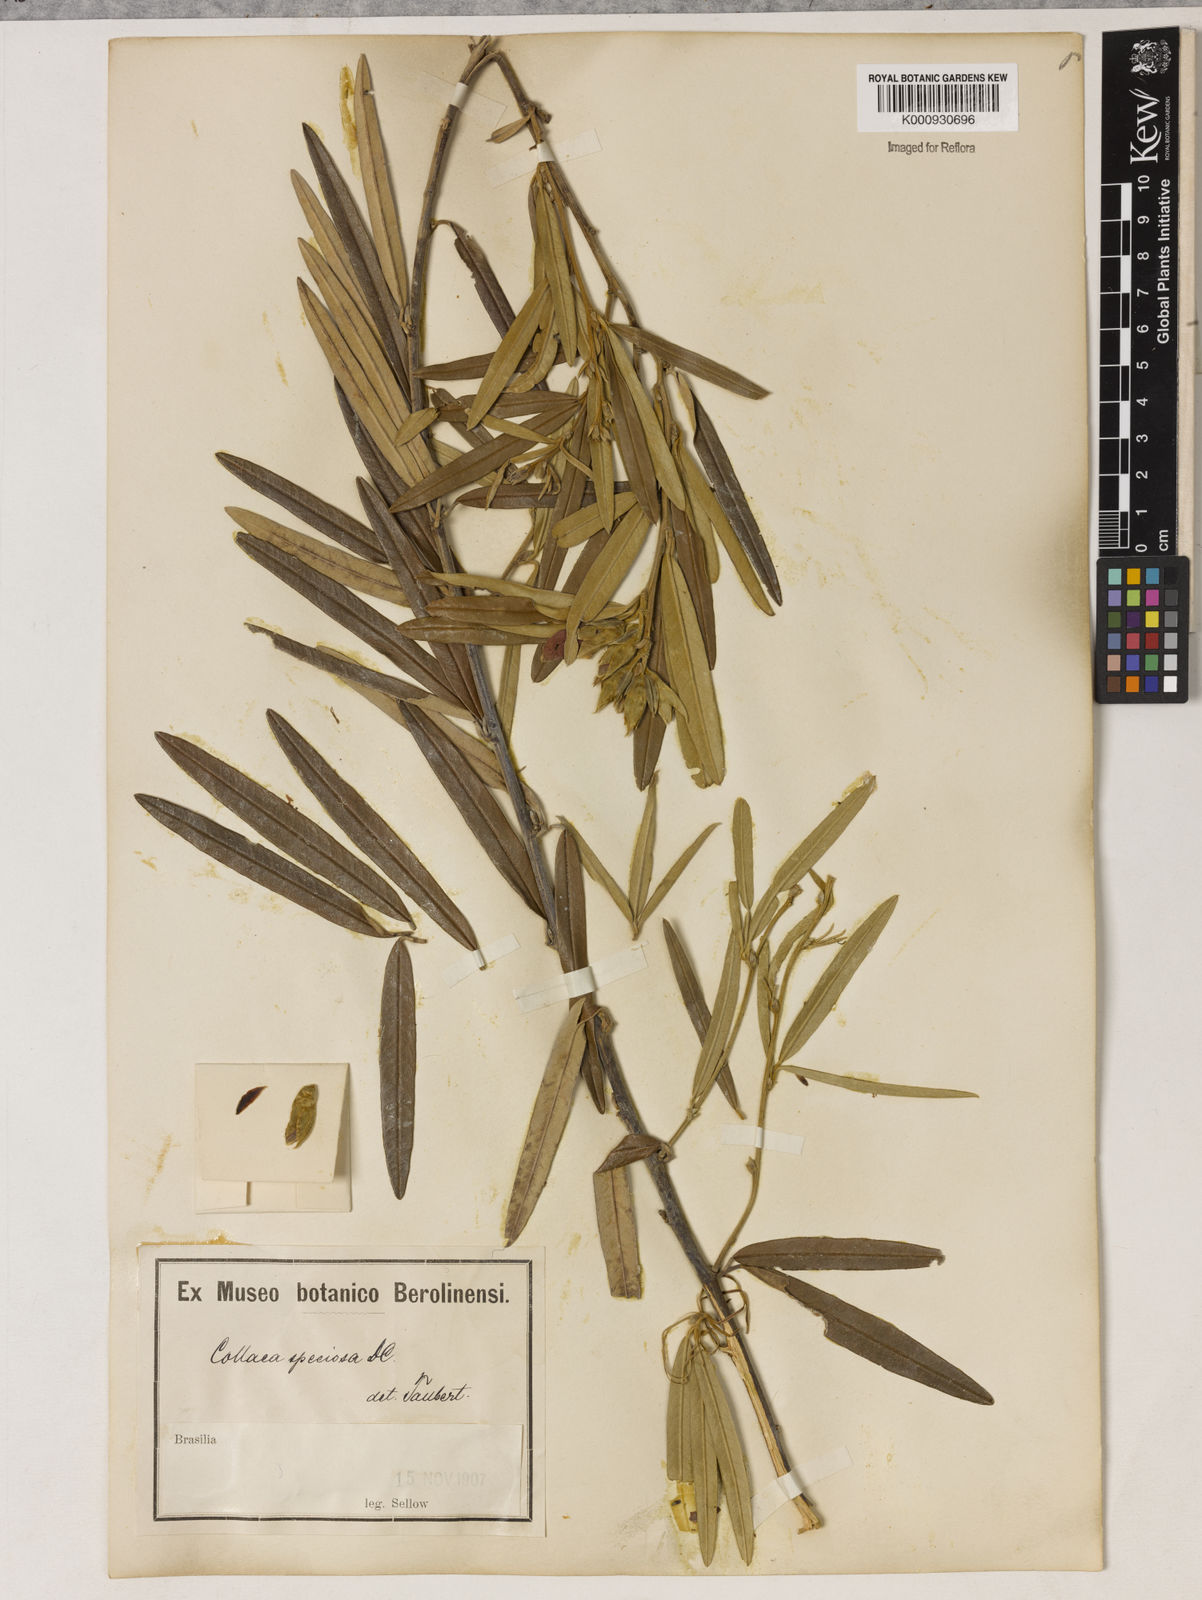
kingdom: Plantae
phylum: Tracheophyta
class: Magnoliopsida
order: Lamiales
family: Lamiaceae
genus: Coleus
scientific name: Coleus barbatus
